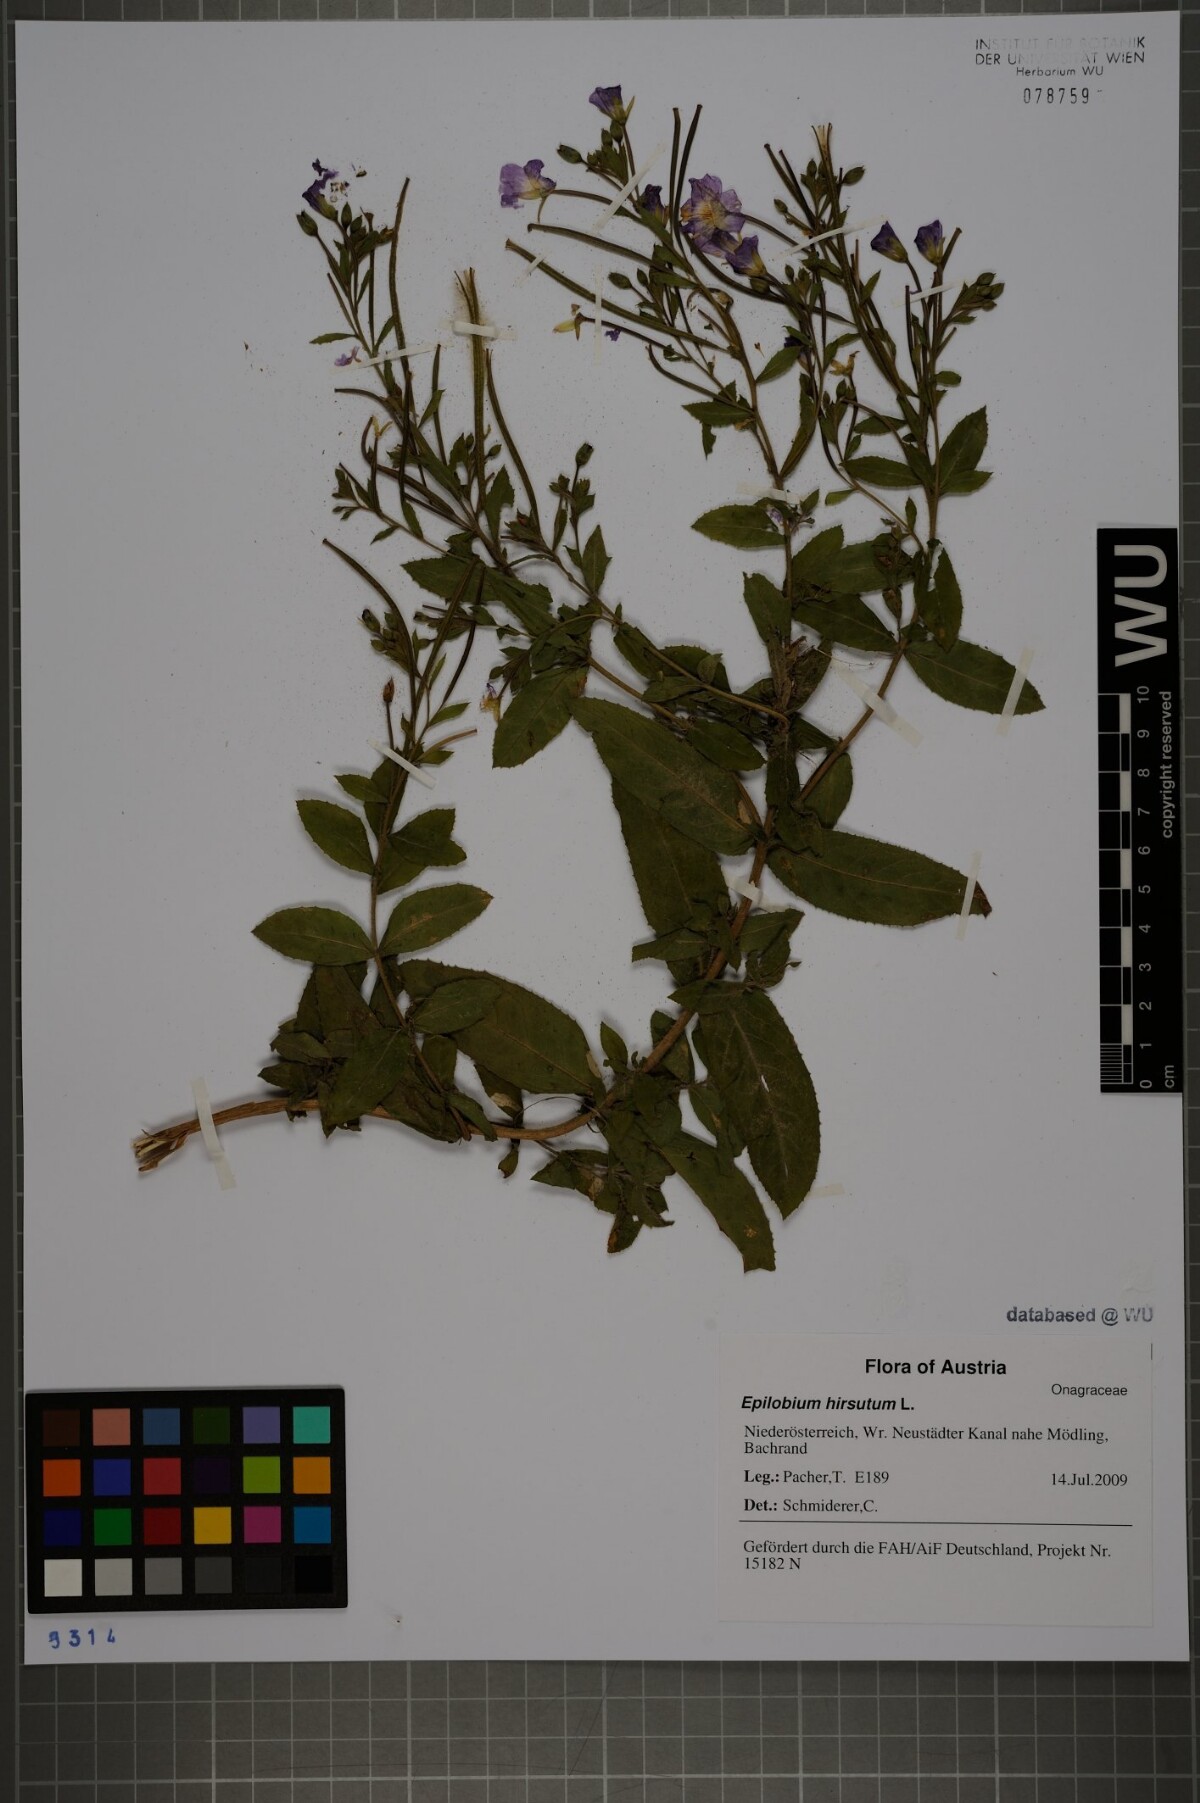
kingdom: Plantae
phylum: Tracheophyta
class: Magnoliopsida
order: Myrtales
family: Onagraceae
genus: Epilobium
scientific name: Epilobium hirsutum
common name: Great willowherb
